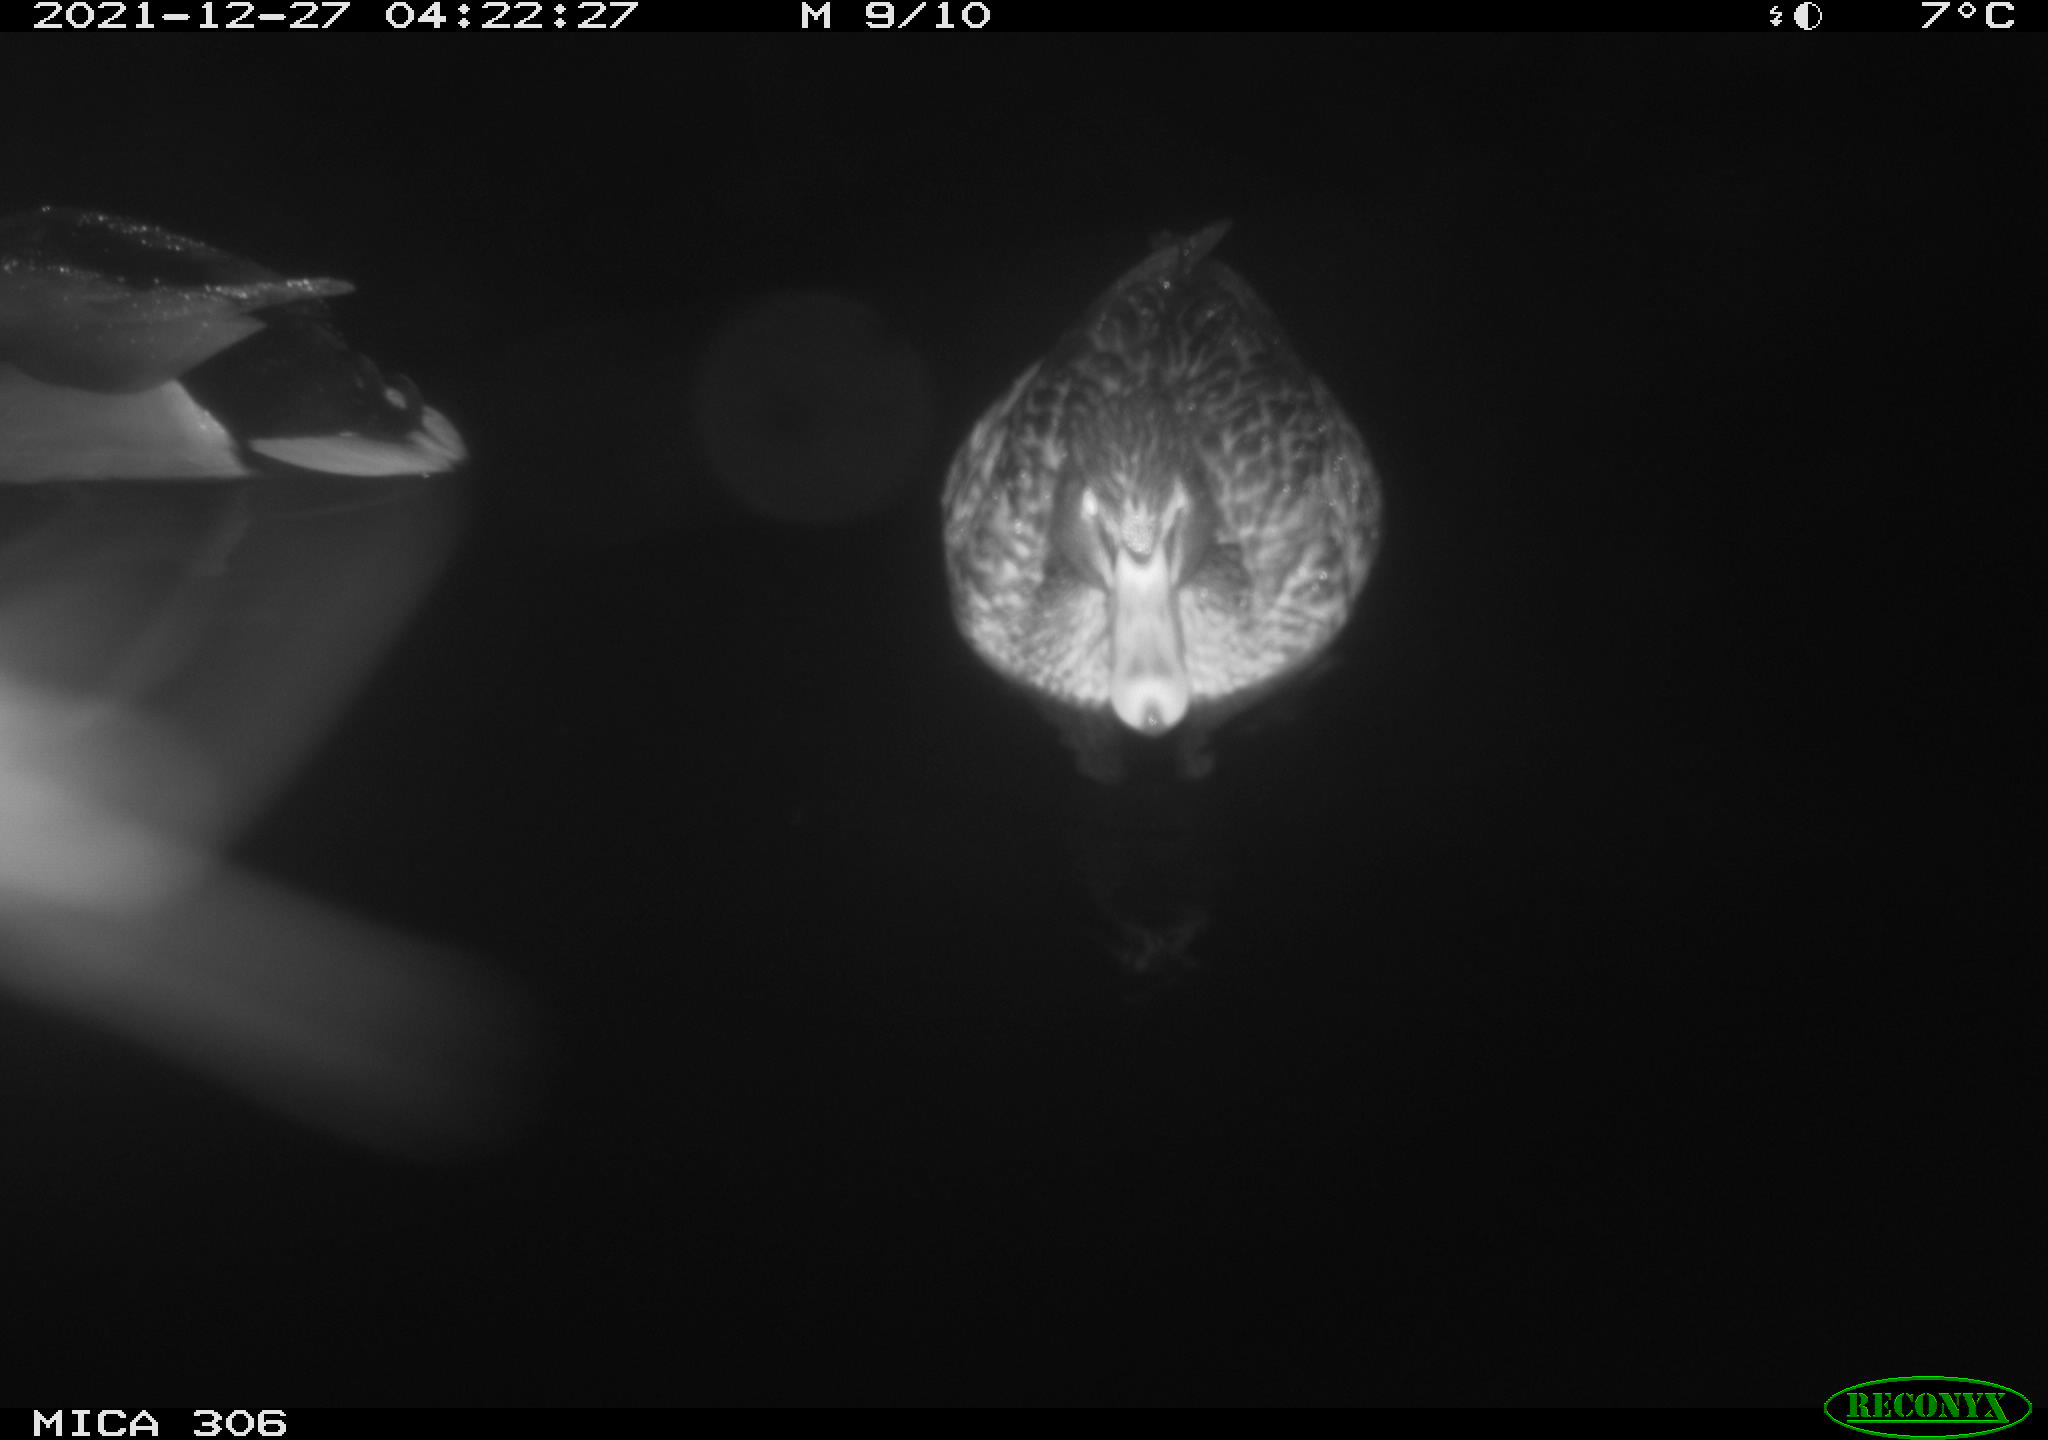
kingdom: Animalia
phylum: Chordata
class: Aves
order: Anseriformes
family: Anatidae
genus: Anas
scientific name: Anas
